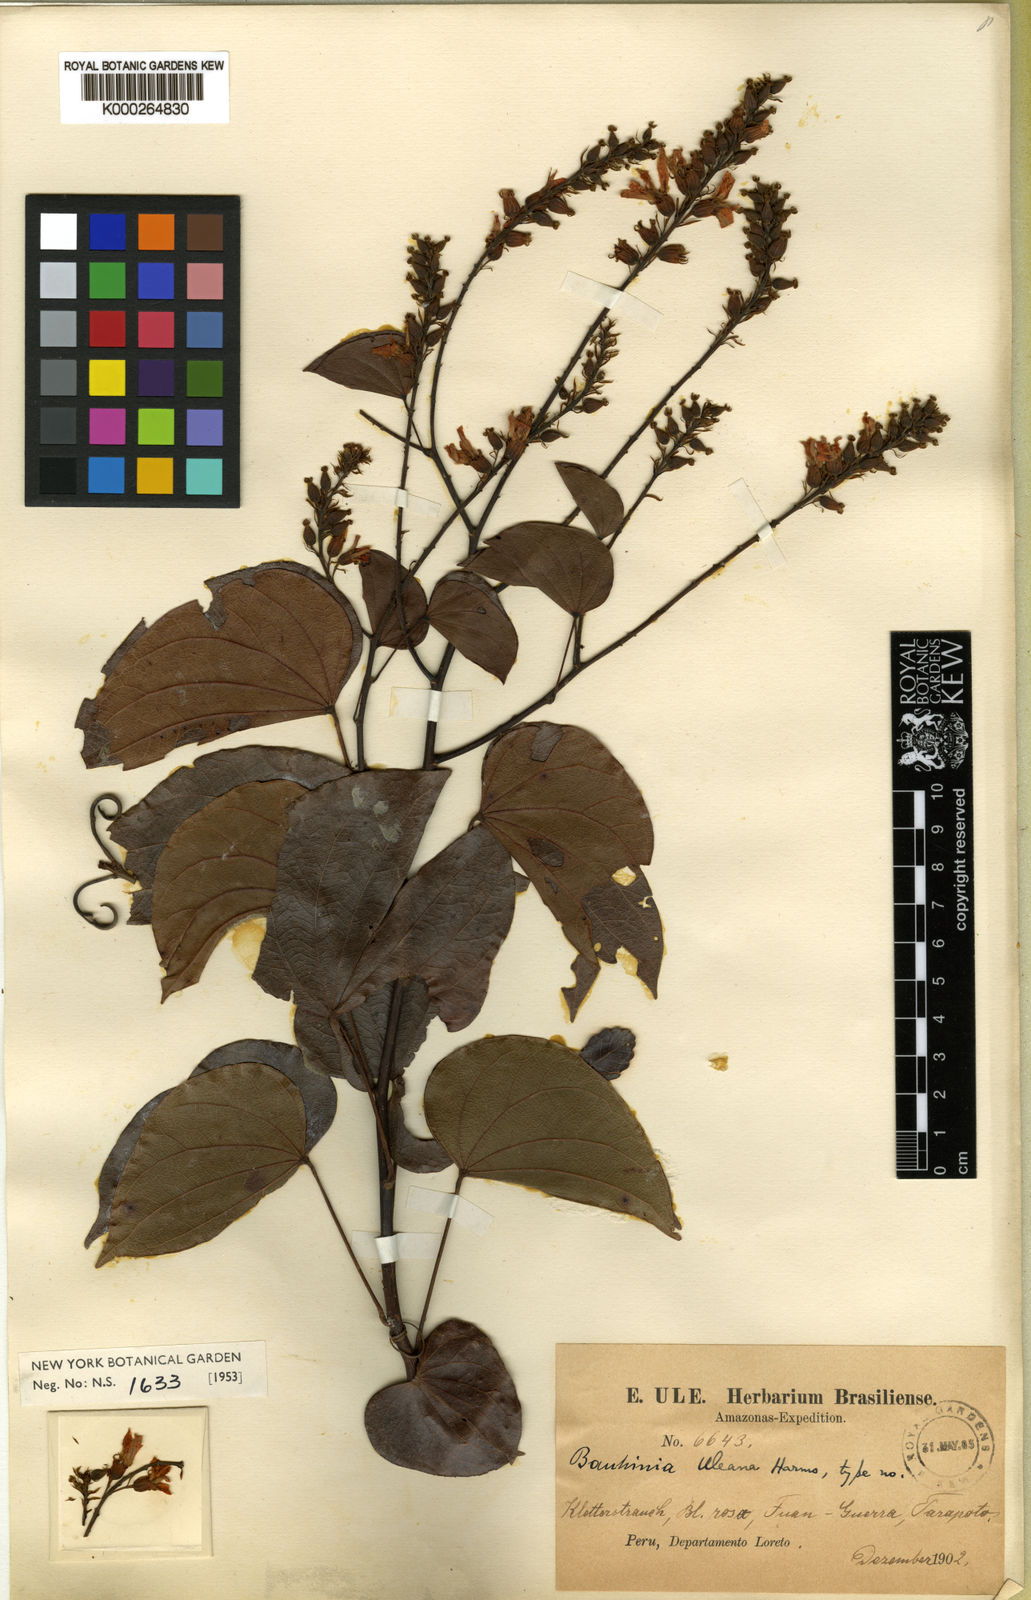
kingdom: Plantae
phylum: Tracheophyta
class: Magnoliopsida
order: Fabales
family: Fabaceae
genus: Schnella
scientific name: Schnella uleana
